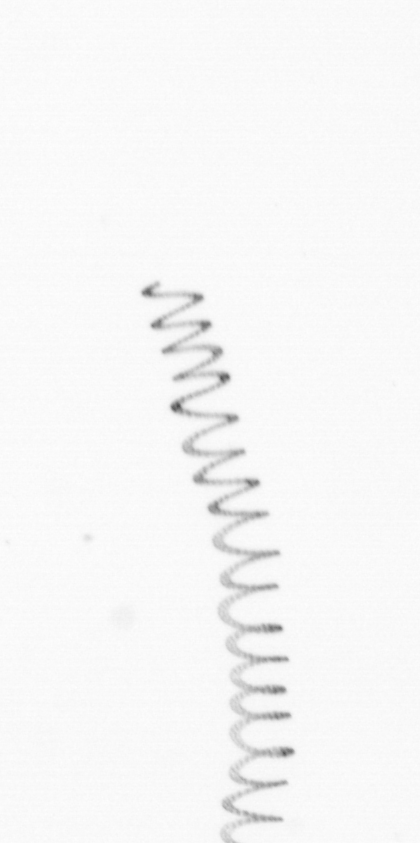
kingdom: Chromista
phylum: Ochrophyta
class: Bacillariophyceae
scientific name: Bacillariophyceae
